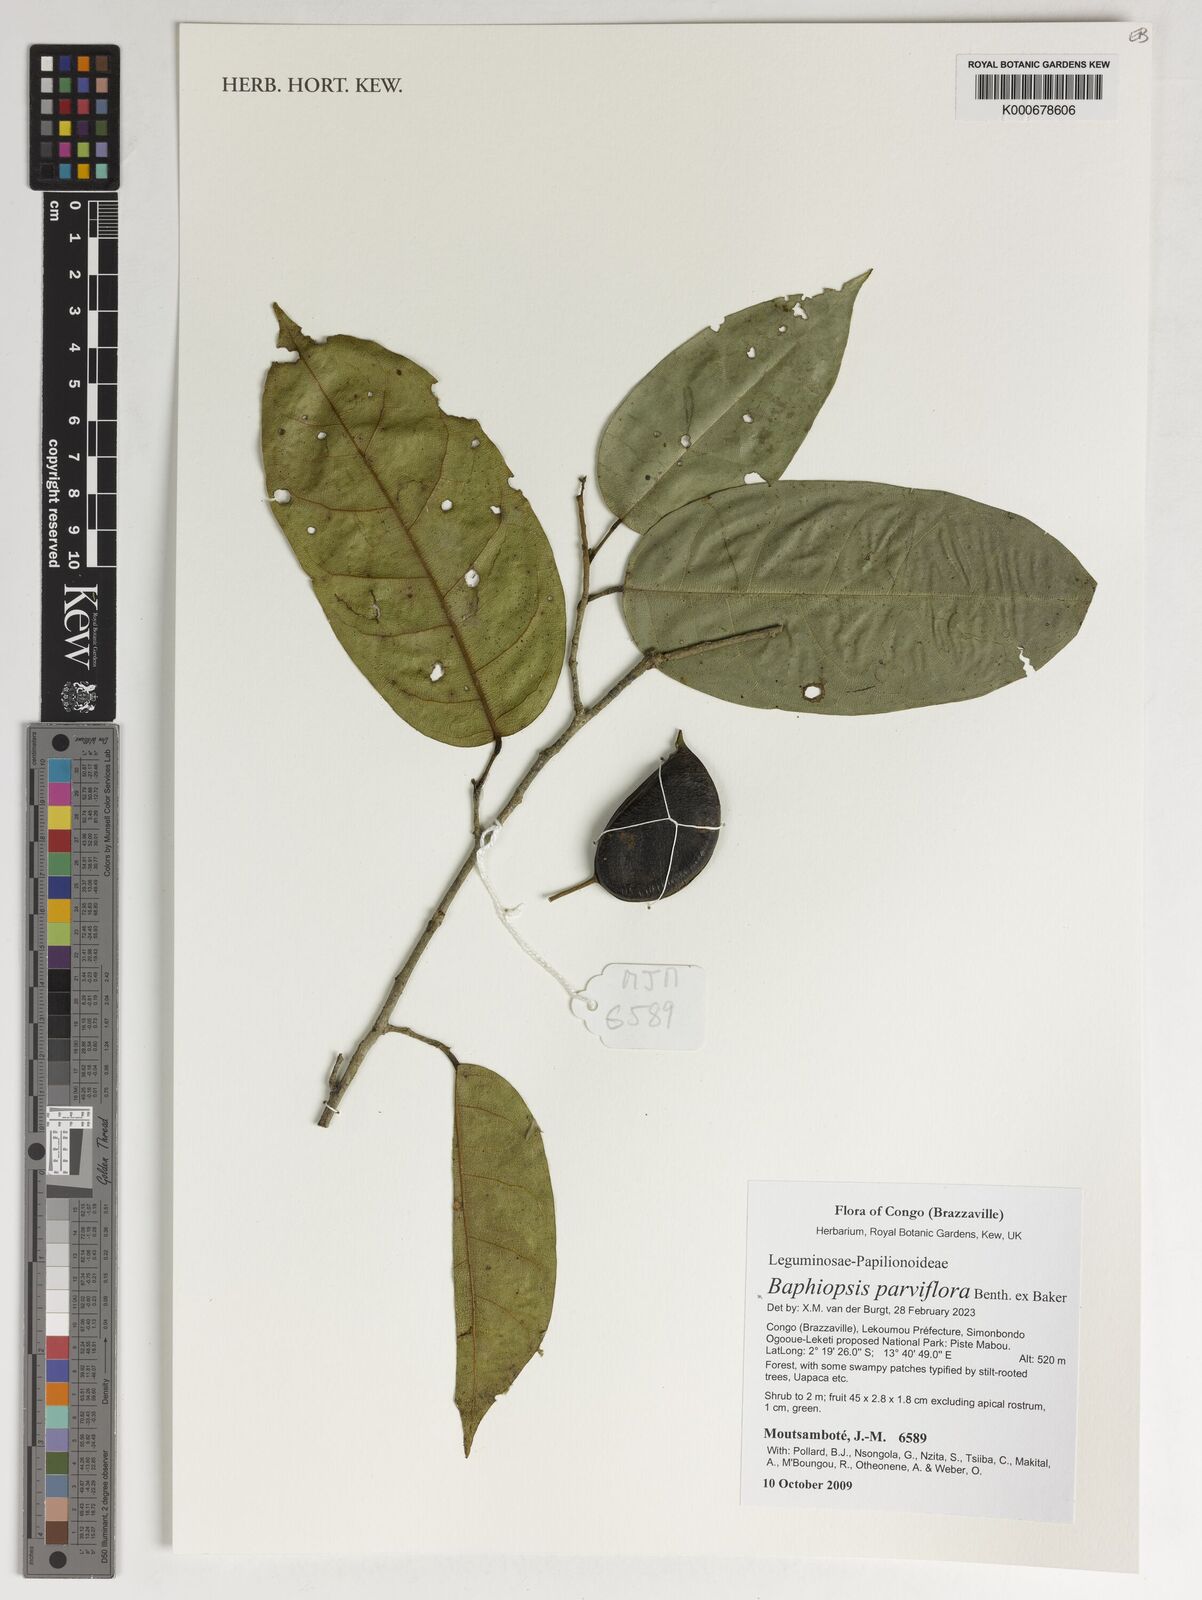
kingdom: Plantae
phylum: Tracheophyta
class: Magnoliopsida
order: Fabales
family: Fabaceae
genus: Baphiopsis
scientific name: Baphiopsis parviflora
